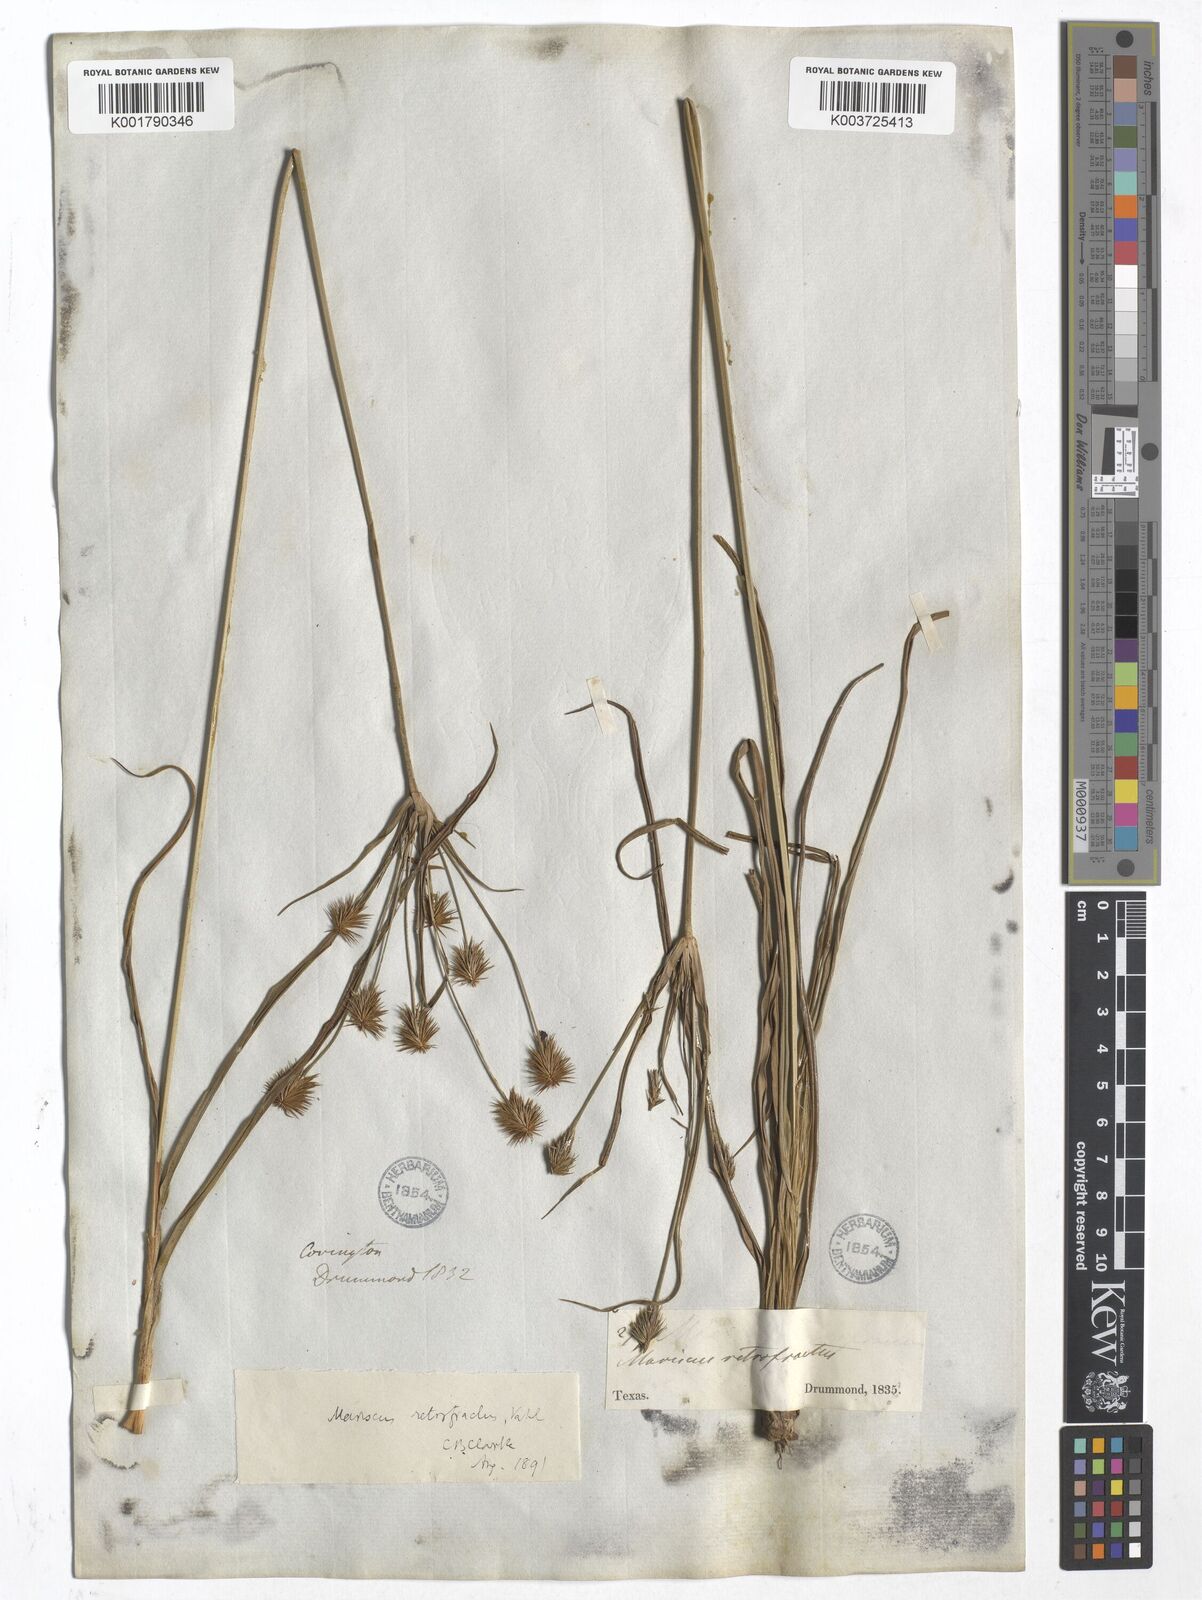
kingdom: Plantae
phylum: Tracheophyta
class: Liliopsida
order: Poales
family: Cyperaceae
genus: Cyperus
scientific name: Cyperus retrofractus
